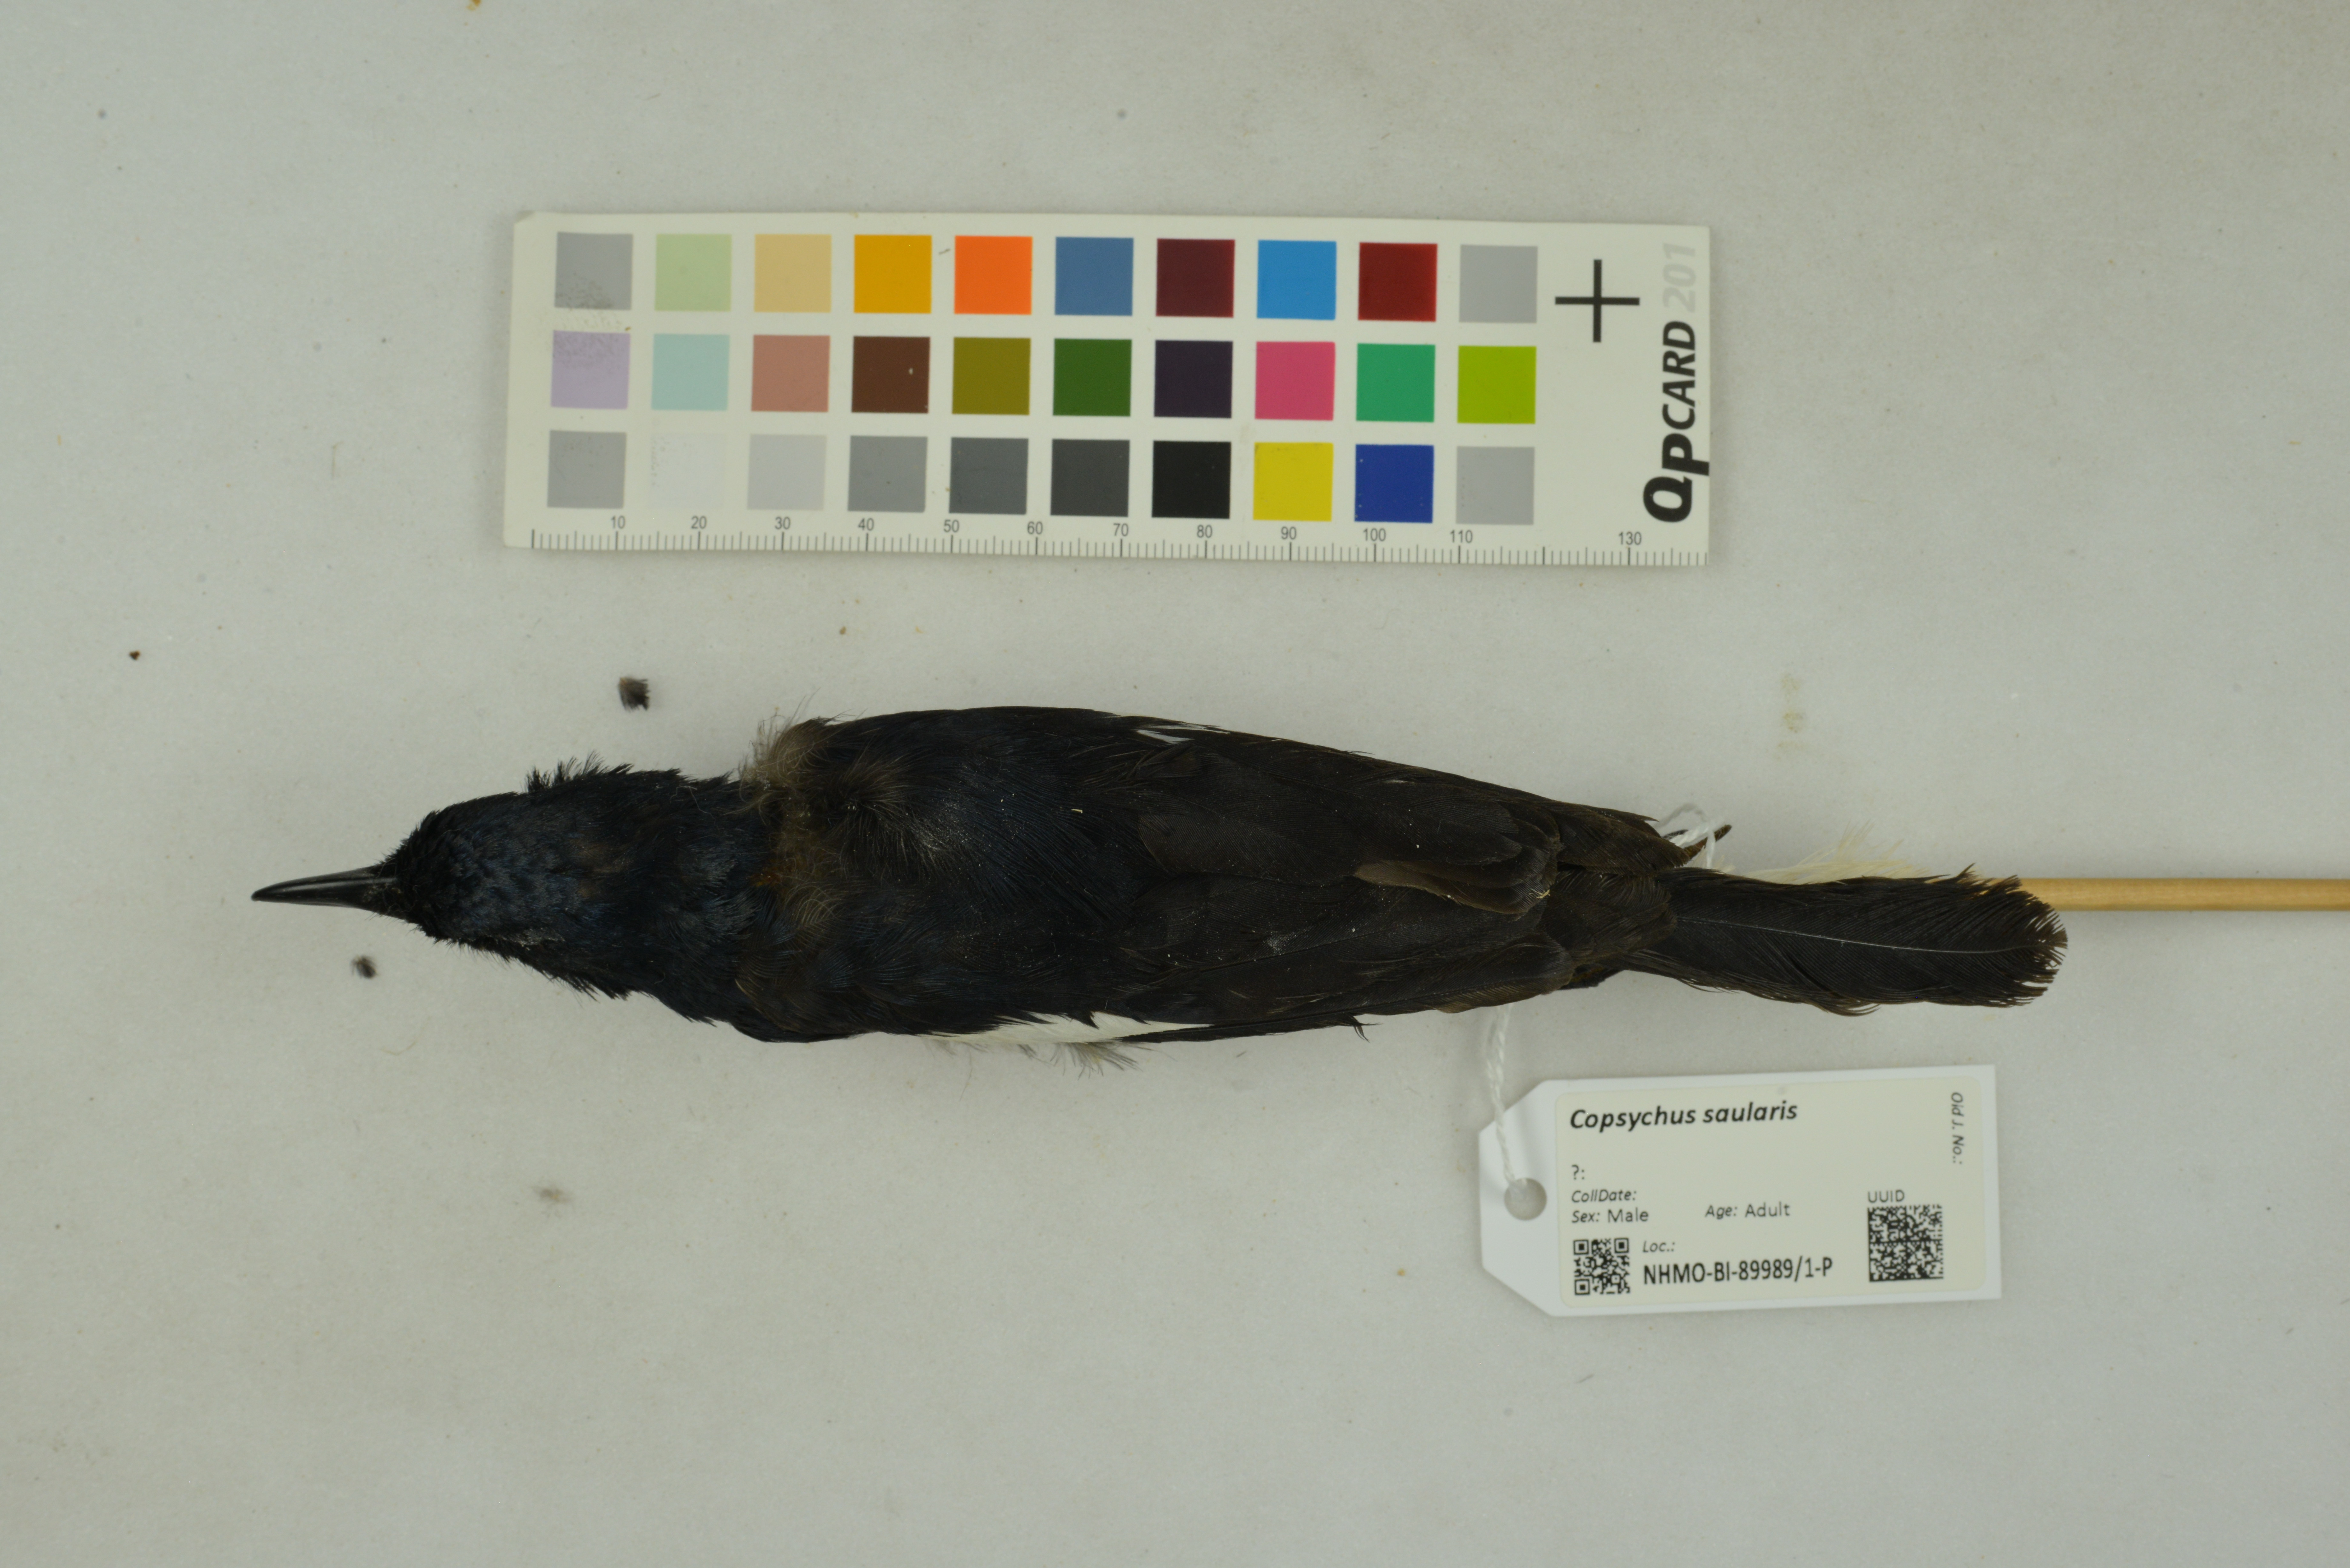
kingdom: Animalia
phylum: Chordata
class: Aves
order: Passeriformes
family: Muscicapidae
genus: Copsychus
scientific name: Copsychus saularis
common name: Oriental magpie-robin
